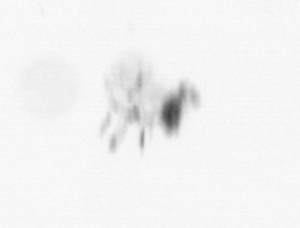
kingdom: Animalia
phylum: Arthropoda
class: Maxillopoda
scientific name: Maxillopoda
